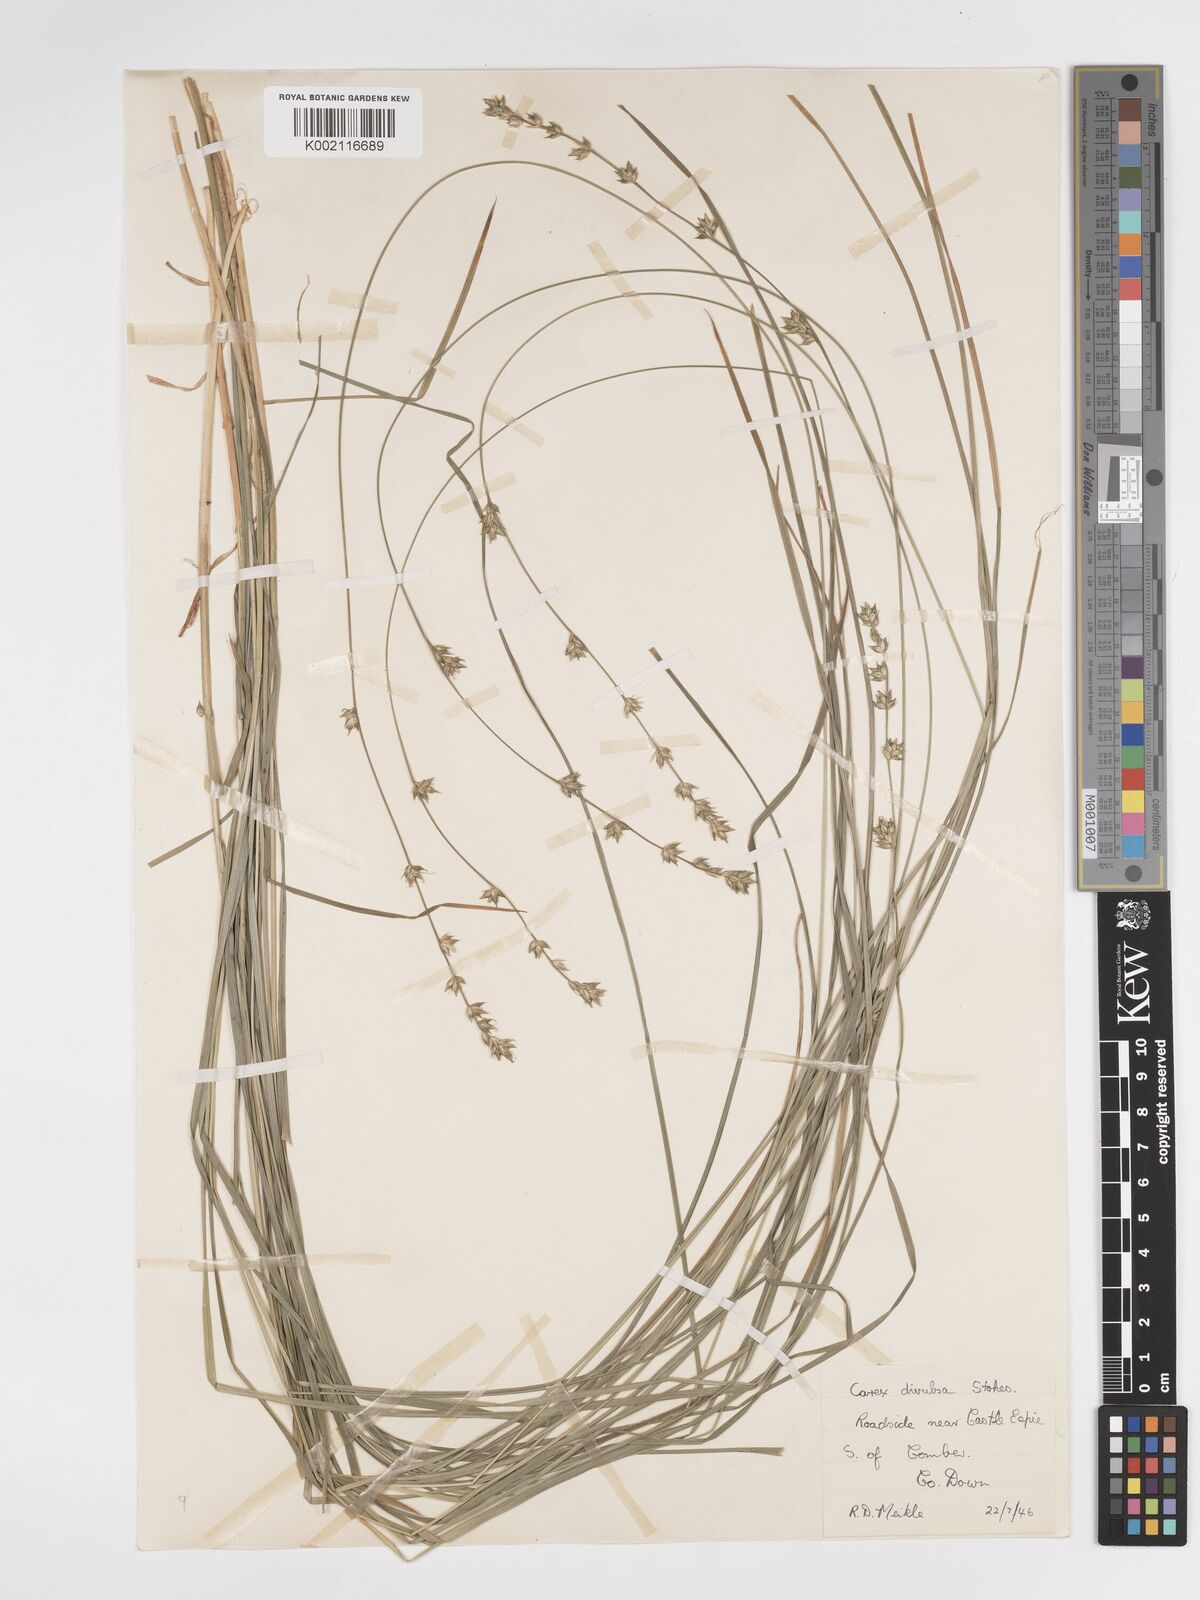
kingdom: Plantae
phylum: Tracheophyta
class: Liliopsida
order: Poales
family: Cyperaceae
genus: Carex
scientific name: Carex divulsa
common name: Grassland sedge
